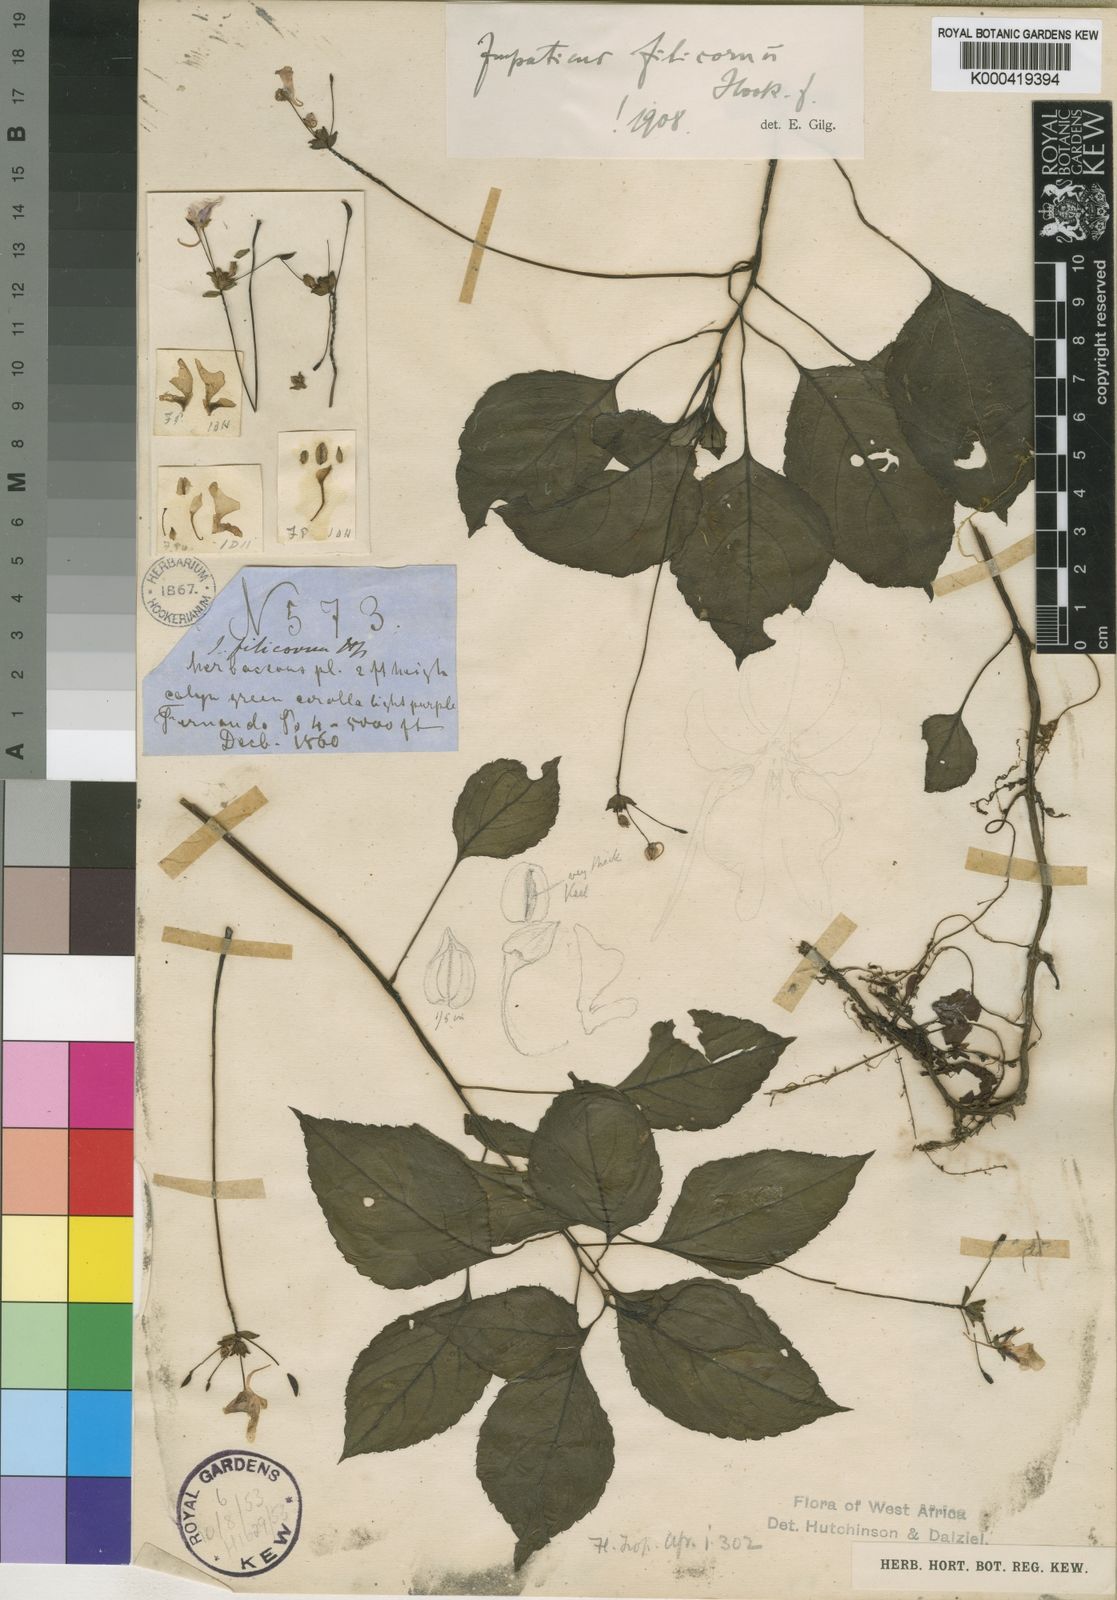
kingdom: Plantae
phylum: Tracheophyta
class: Magnoliopsida
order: Ericales
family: Balsaminaceae
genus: Impatiens
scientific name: Impatiens filicornu
